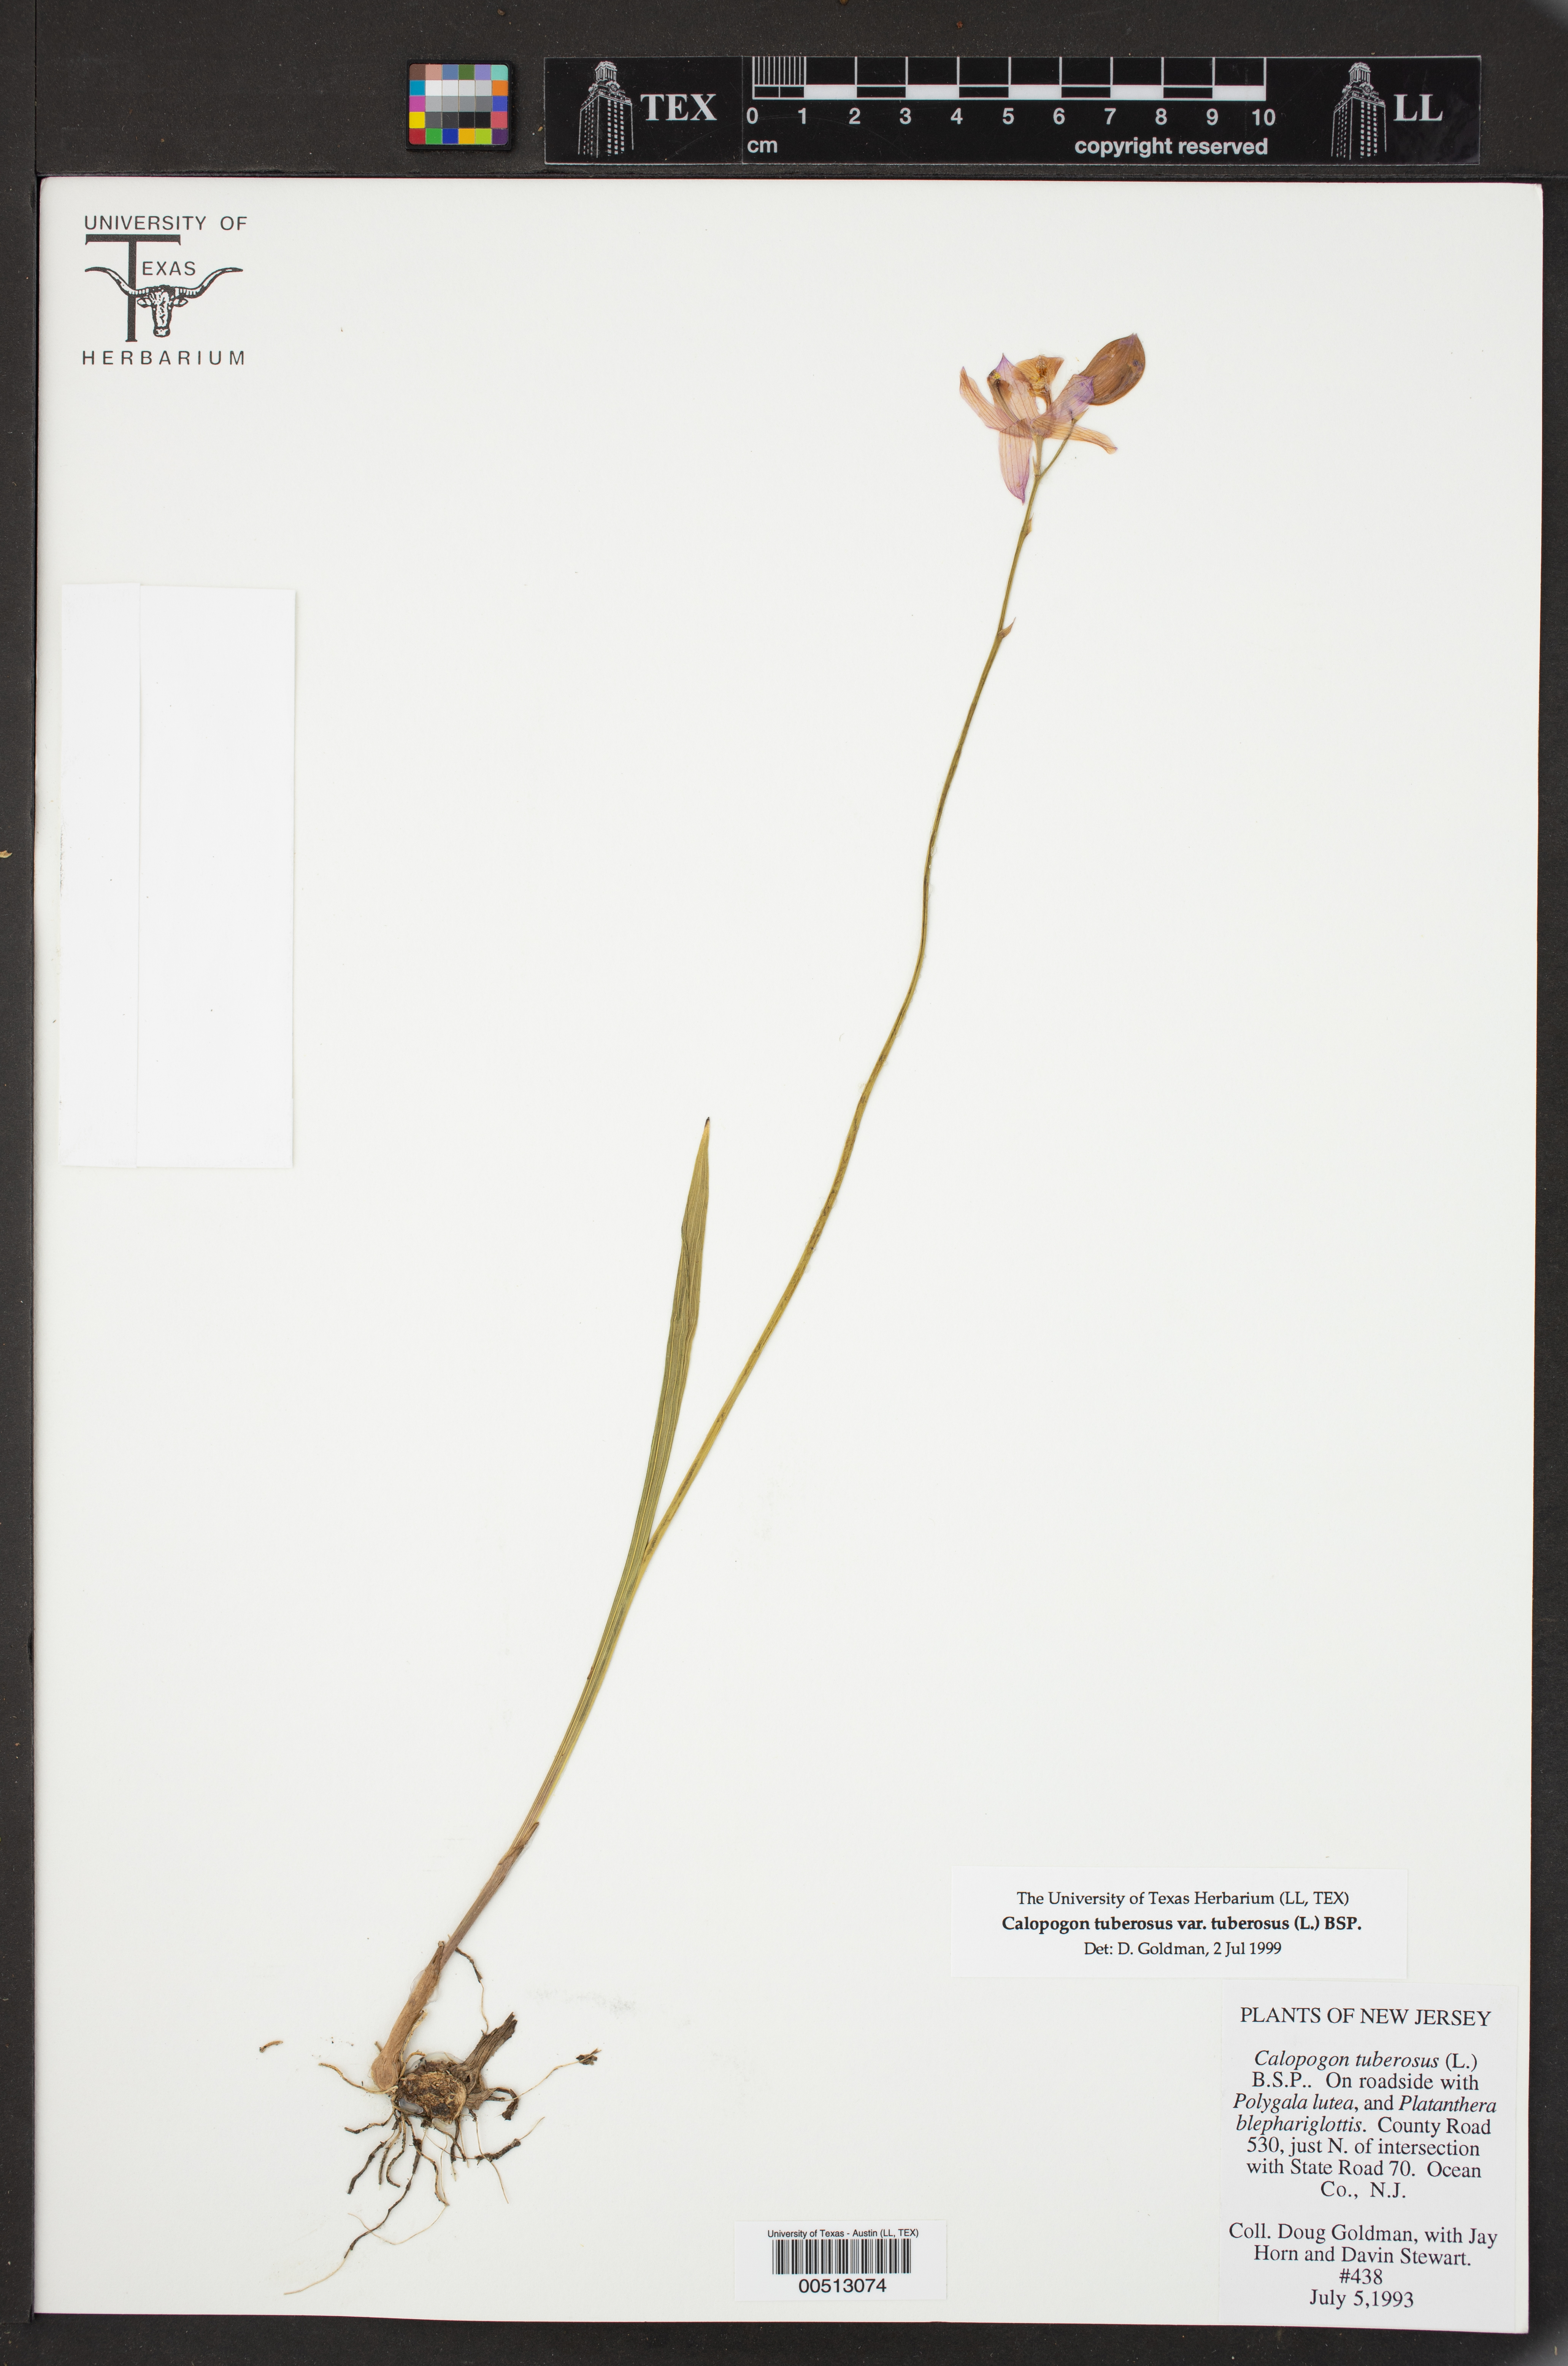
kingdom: Plantae
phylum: Tracheophyta
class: Liliopsida
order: Asparagales
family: Orchidaceae
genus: Calopogon
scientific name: Calopogon tuberosus
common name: Grass-pink
